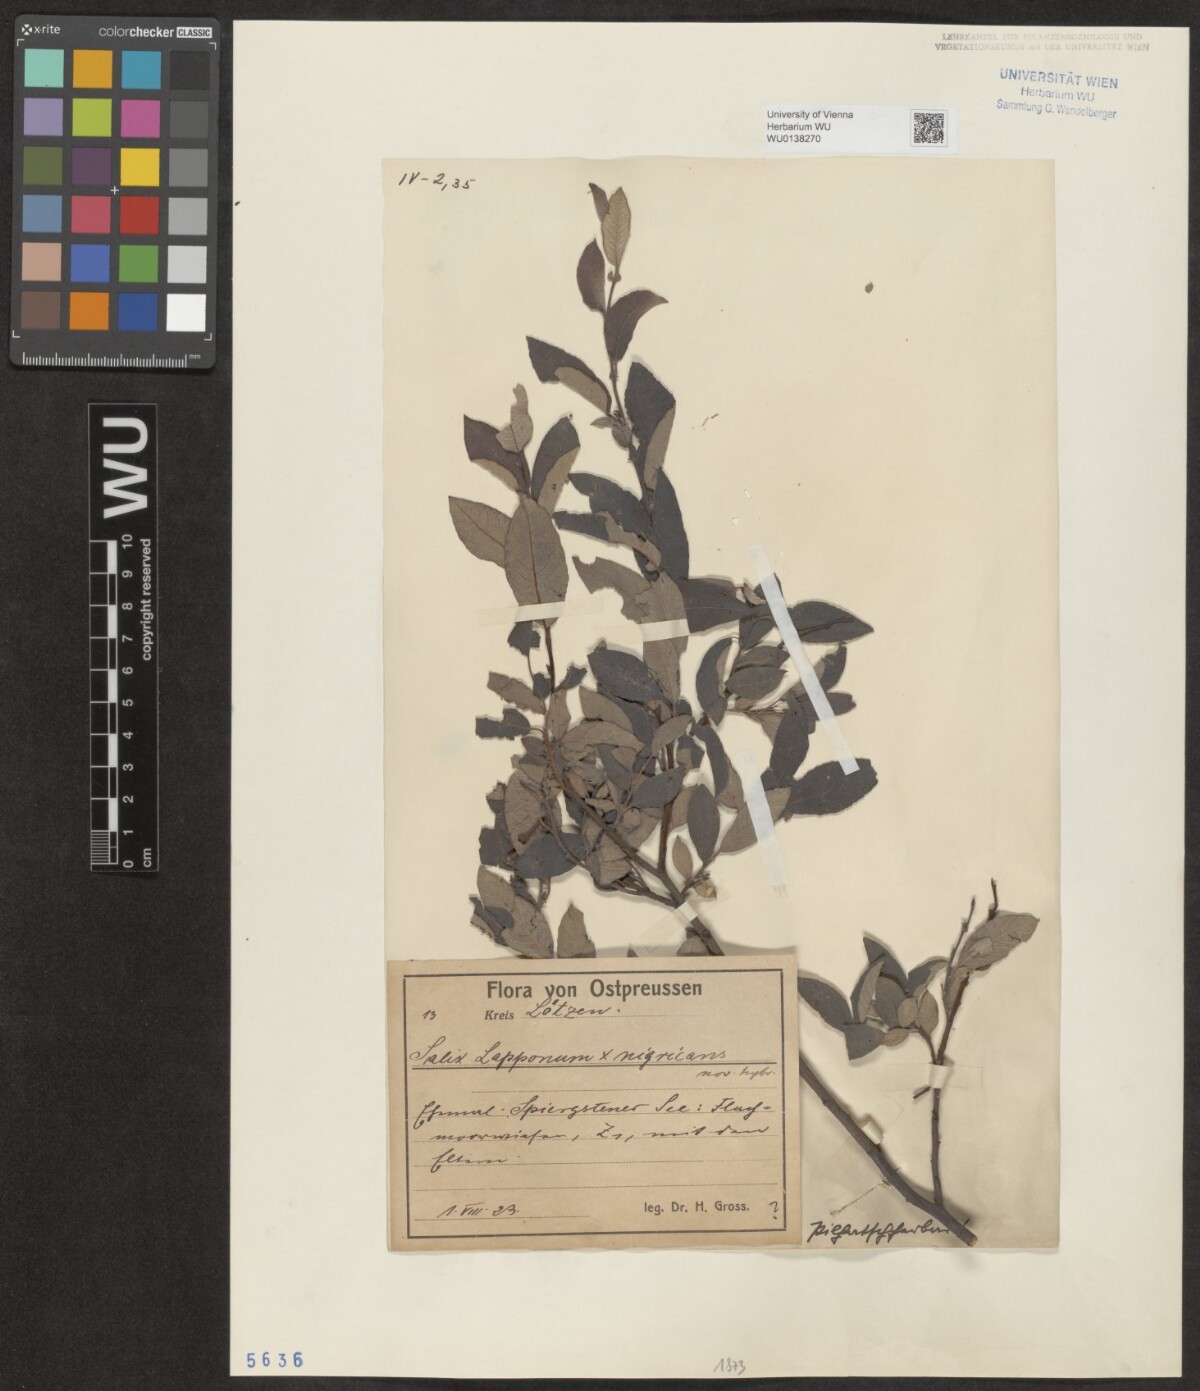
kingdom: Plantae
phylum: Tracheophyta
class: Magnoliopsida
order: Malpighiales
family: Salicaceae
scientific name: Salicaceae
